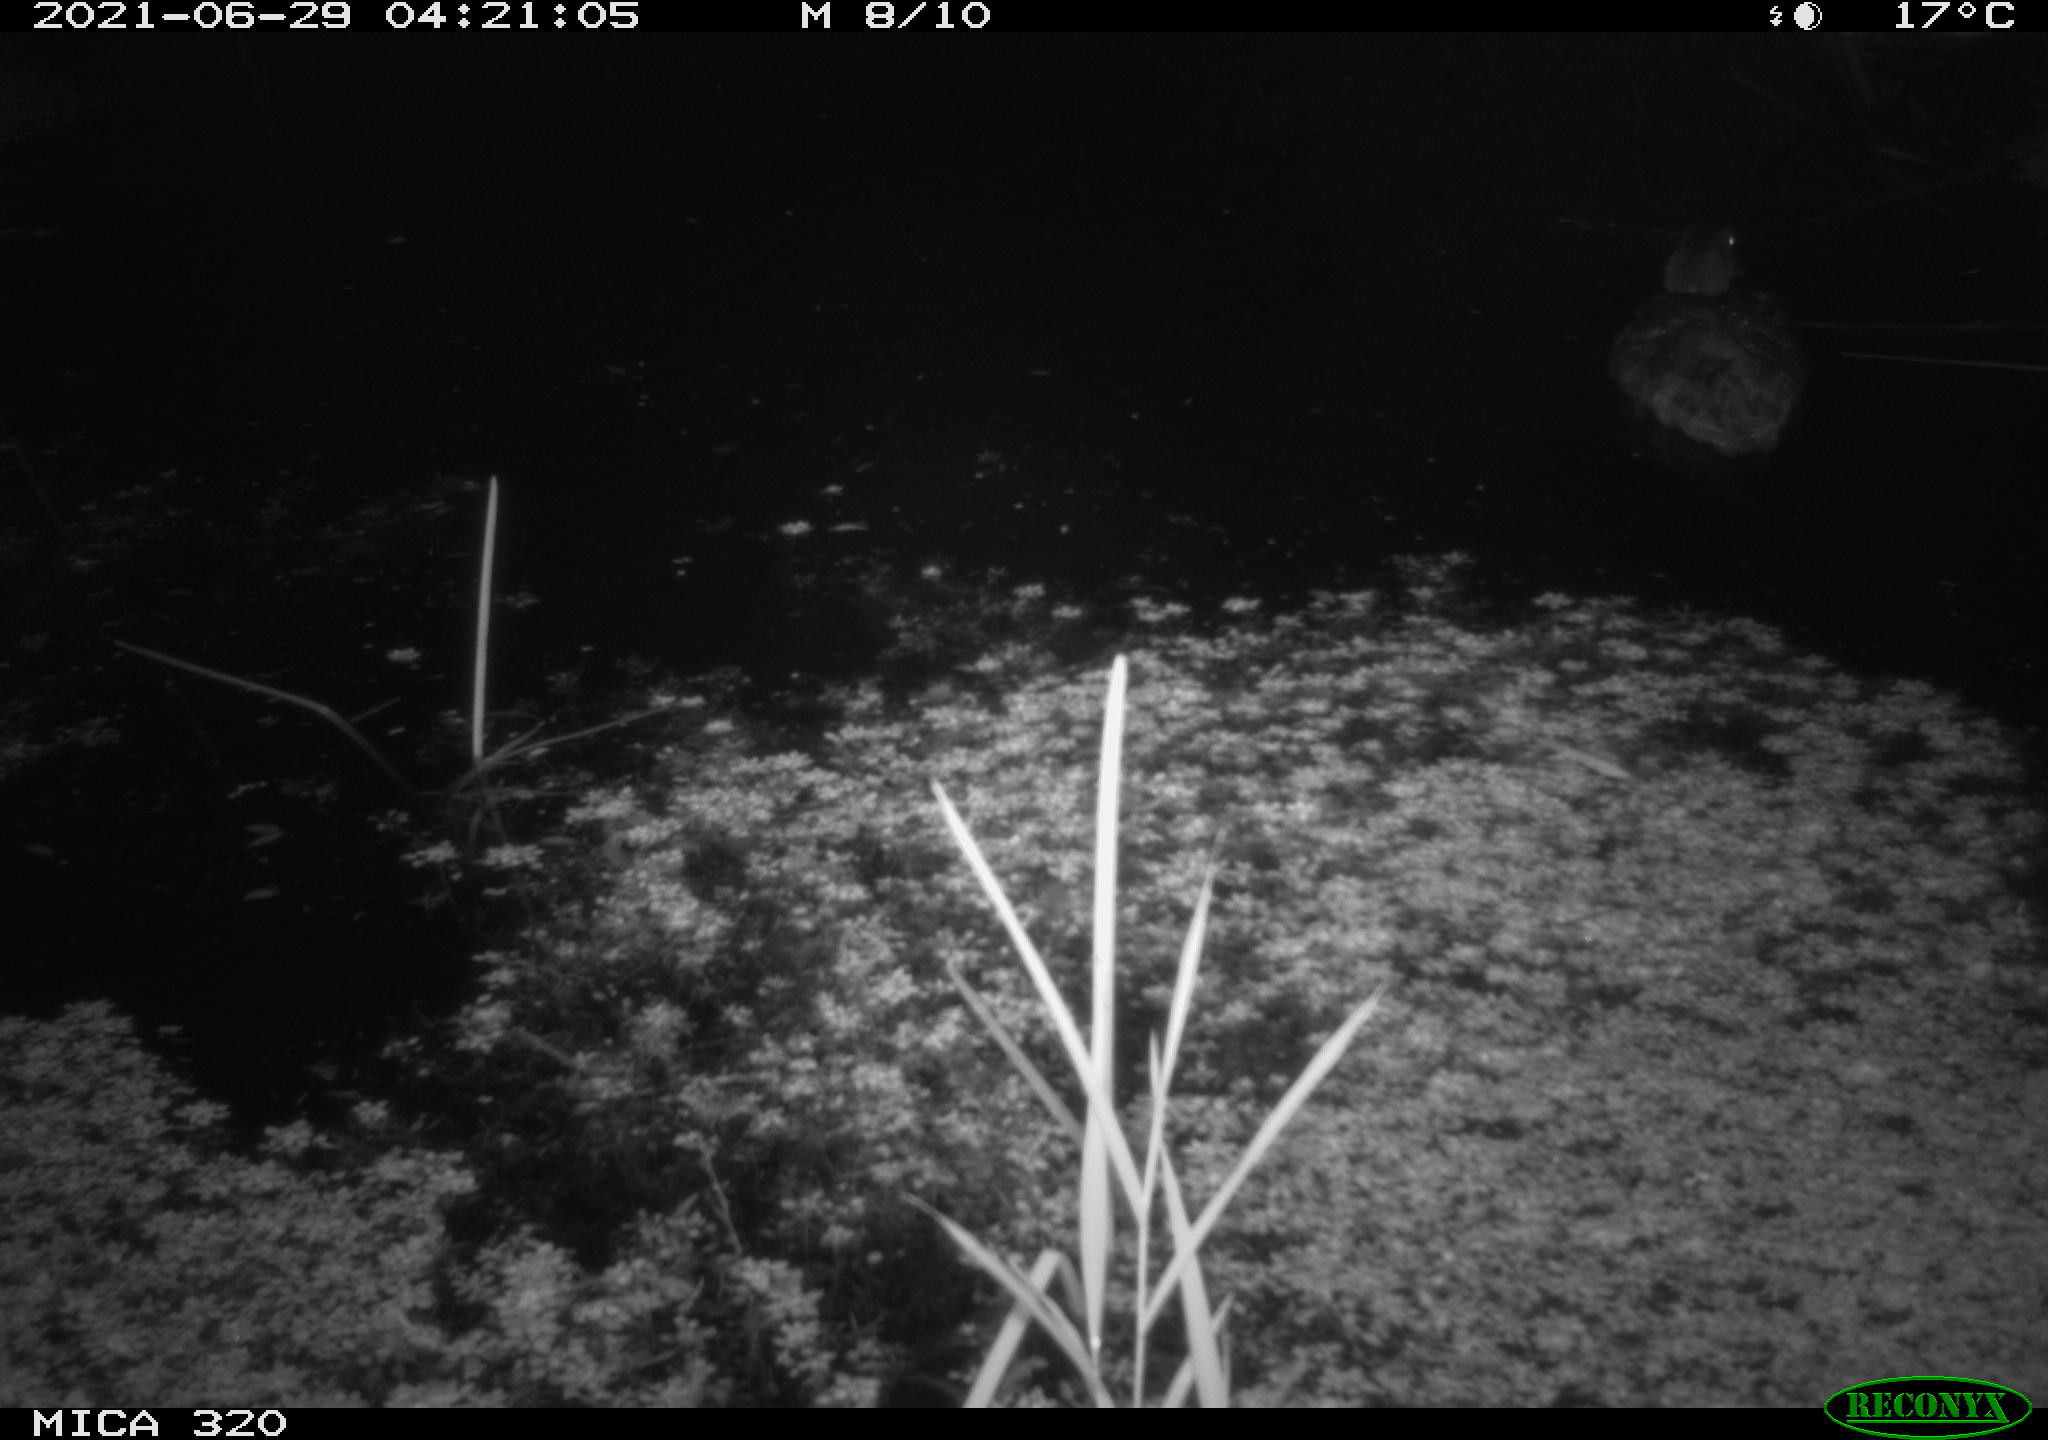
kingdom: Animalia
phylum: Chordata
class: Aves
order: Anseriformes
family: Anatidae
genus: Anas
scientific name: Anas platyrhynchos
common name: Mallard
